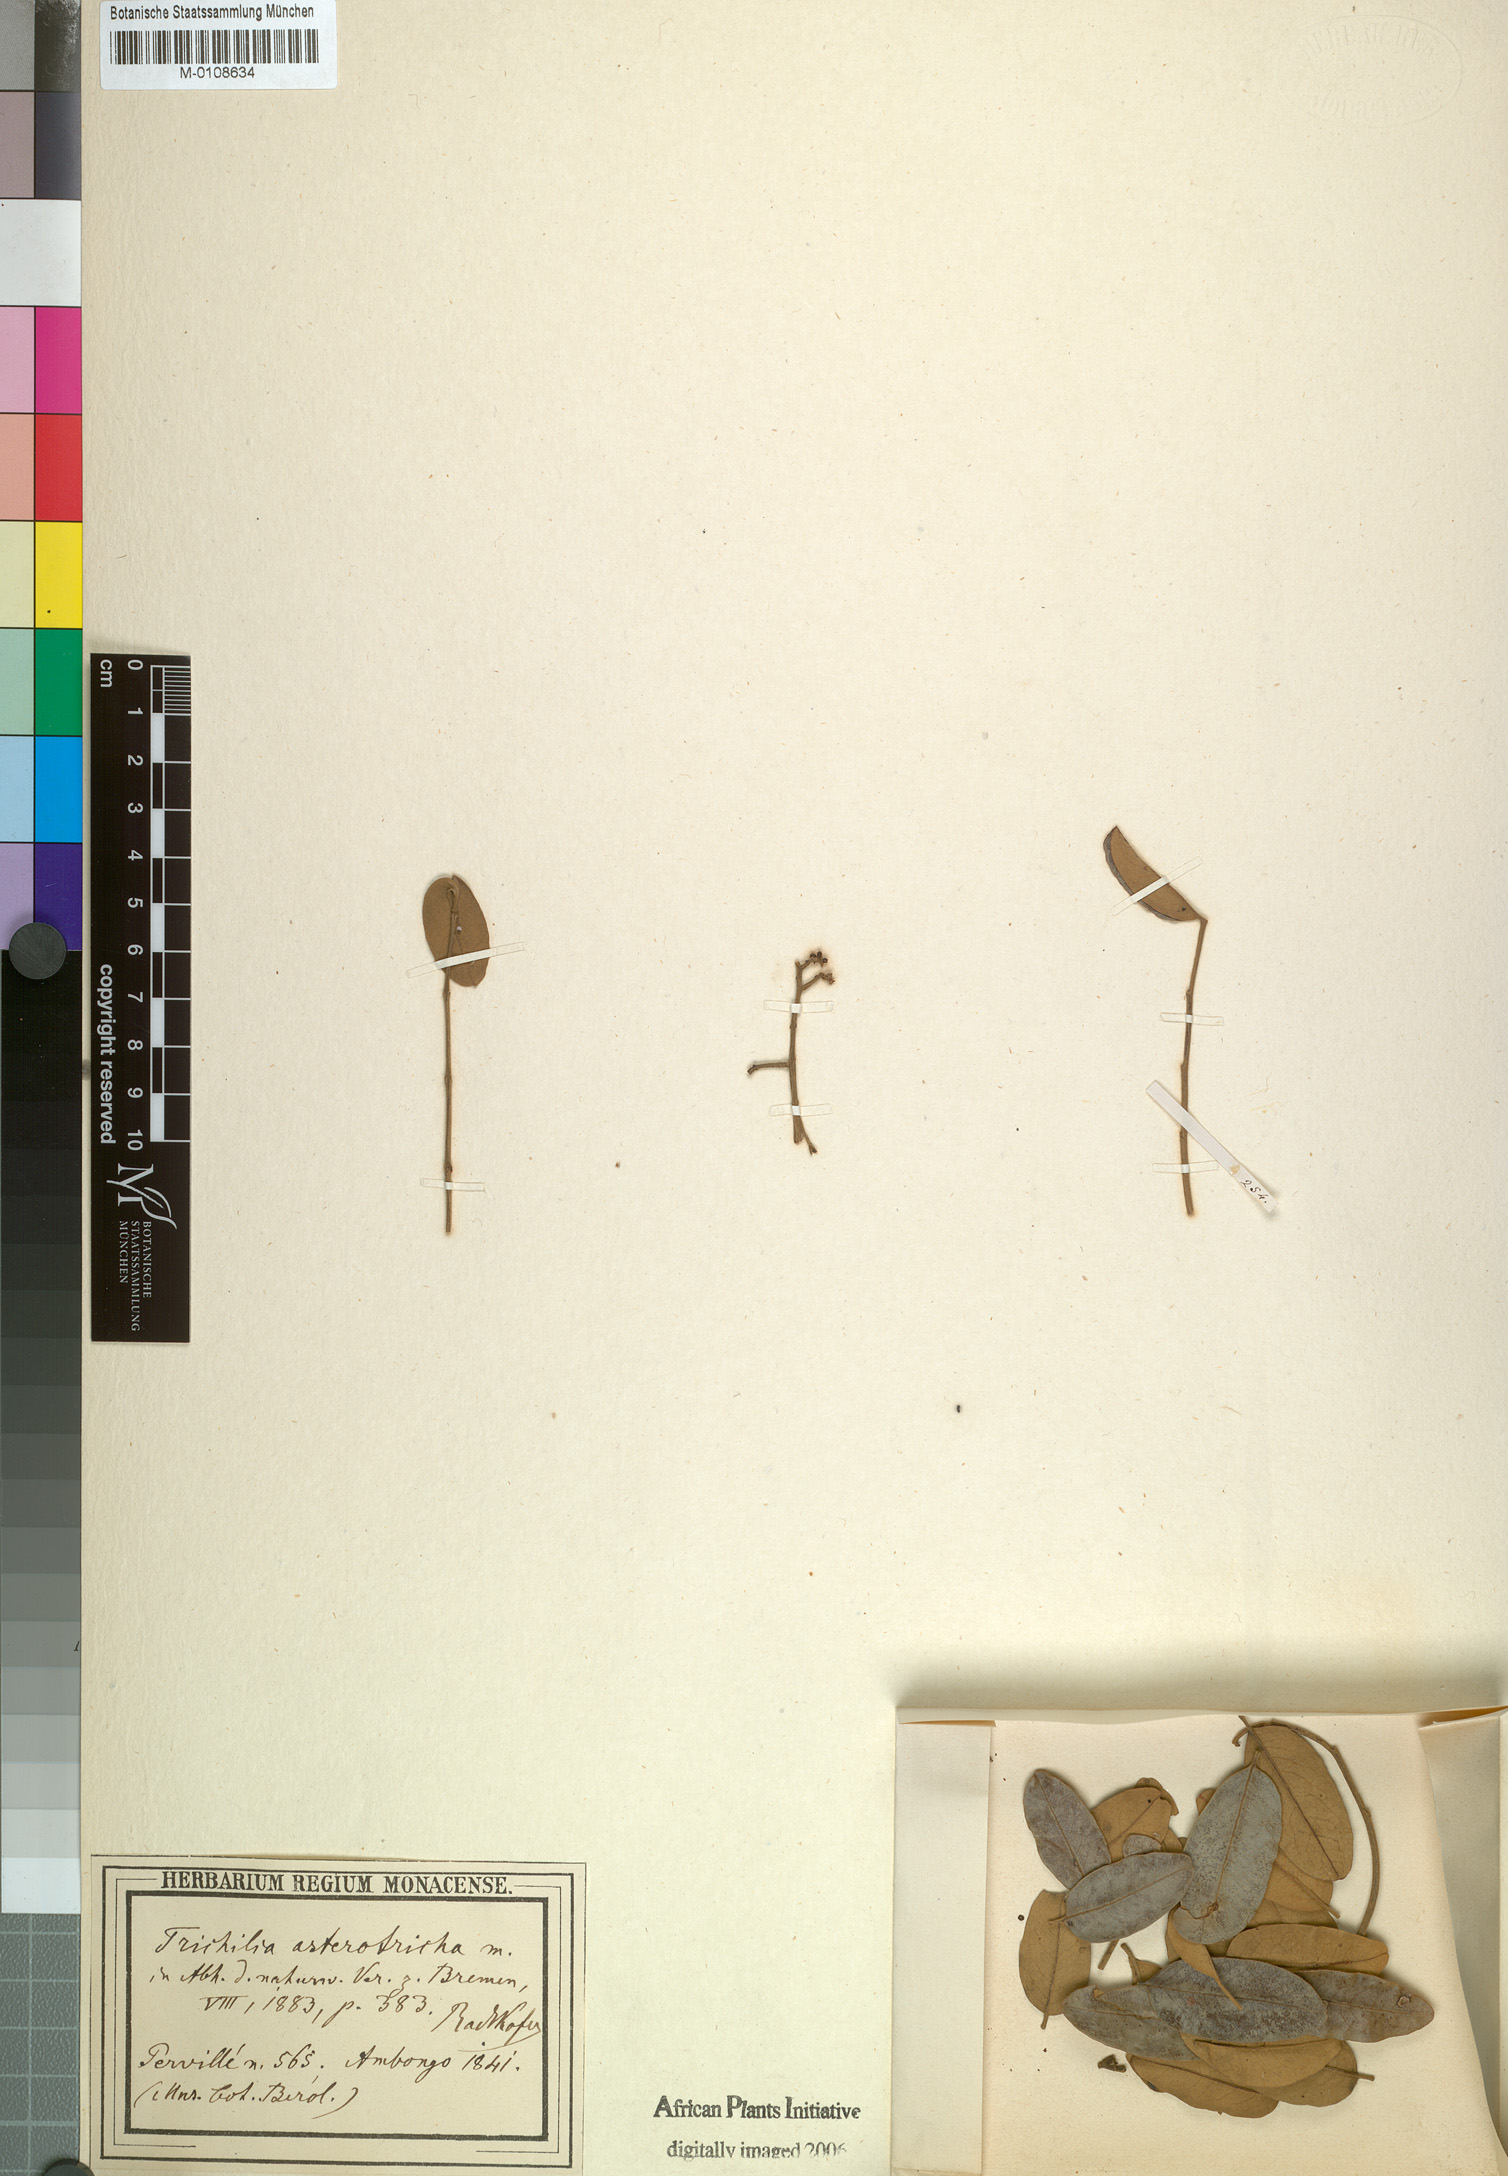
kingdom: Plantae
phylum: Tracheophyta
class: Magnoliopsida
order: Sapindales
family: Meliaceae
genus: Astrotrichilia
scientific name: Astrotrichilia asterotricha
